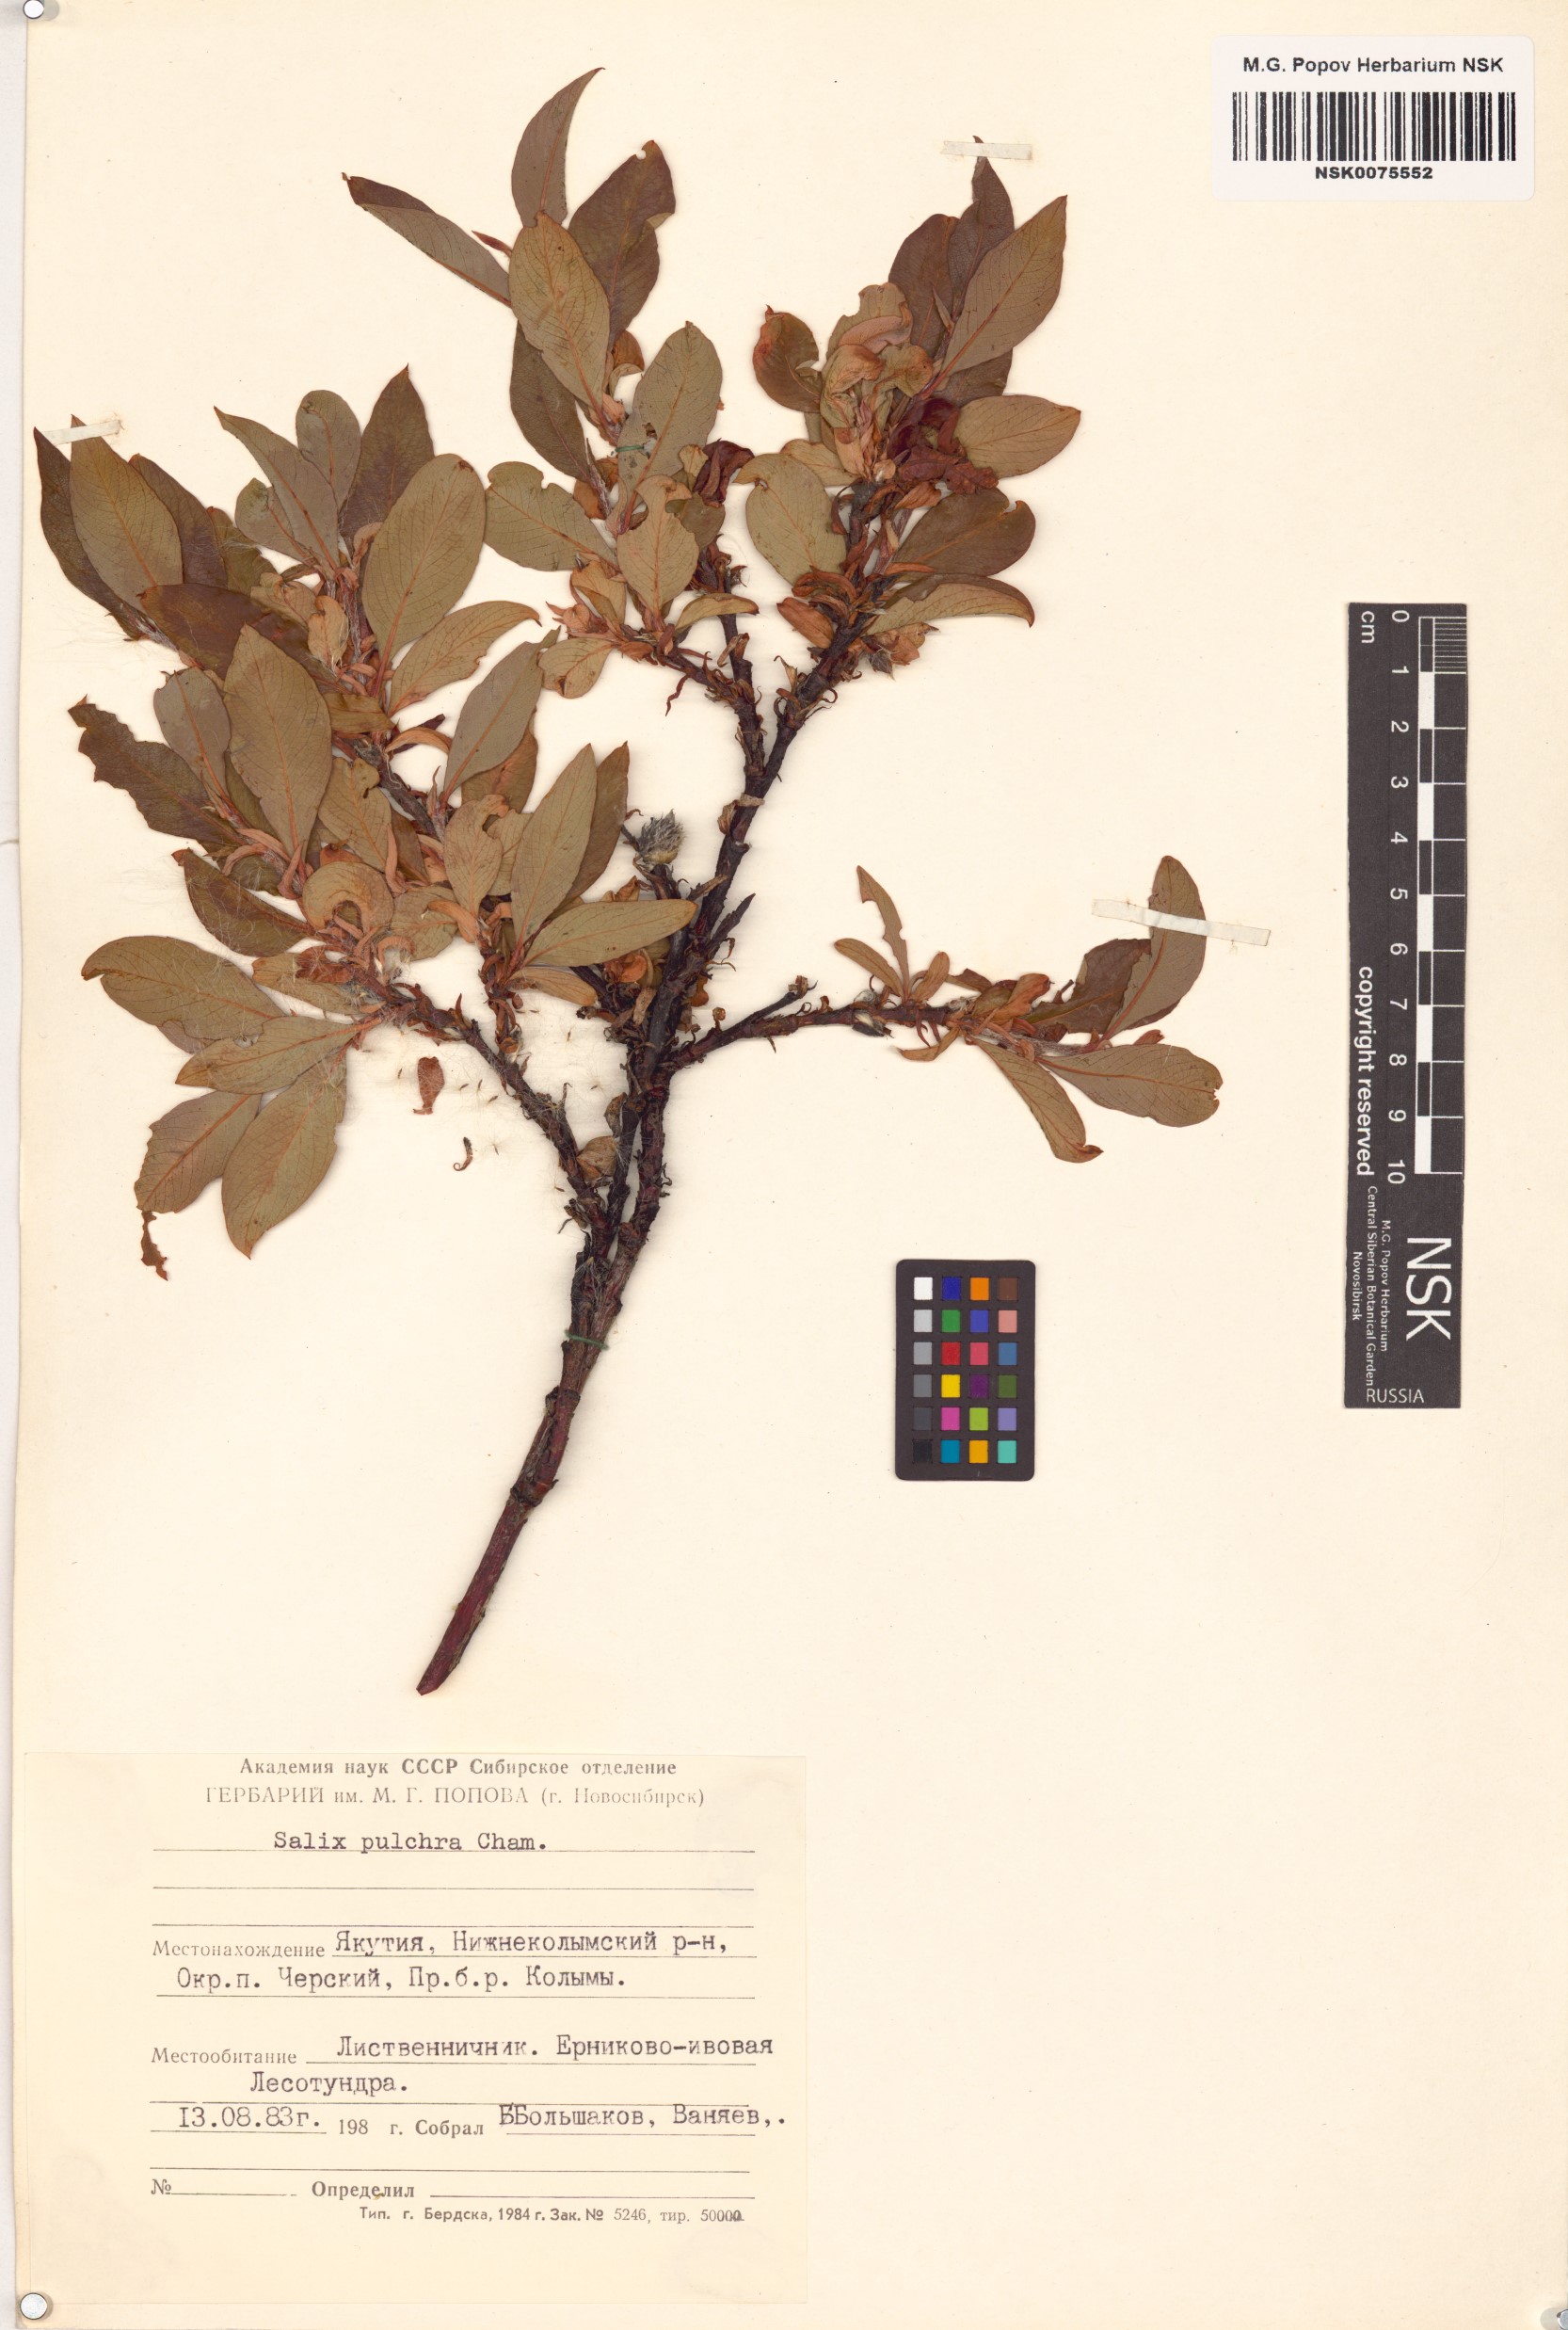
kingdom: Plantae
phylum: Tracheophyta
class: Magnoliopsida
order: Malpighiales
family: Salicaceae
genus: Salix
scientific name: Salix pulchra
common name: Diamond-leaved willow
